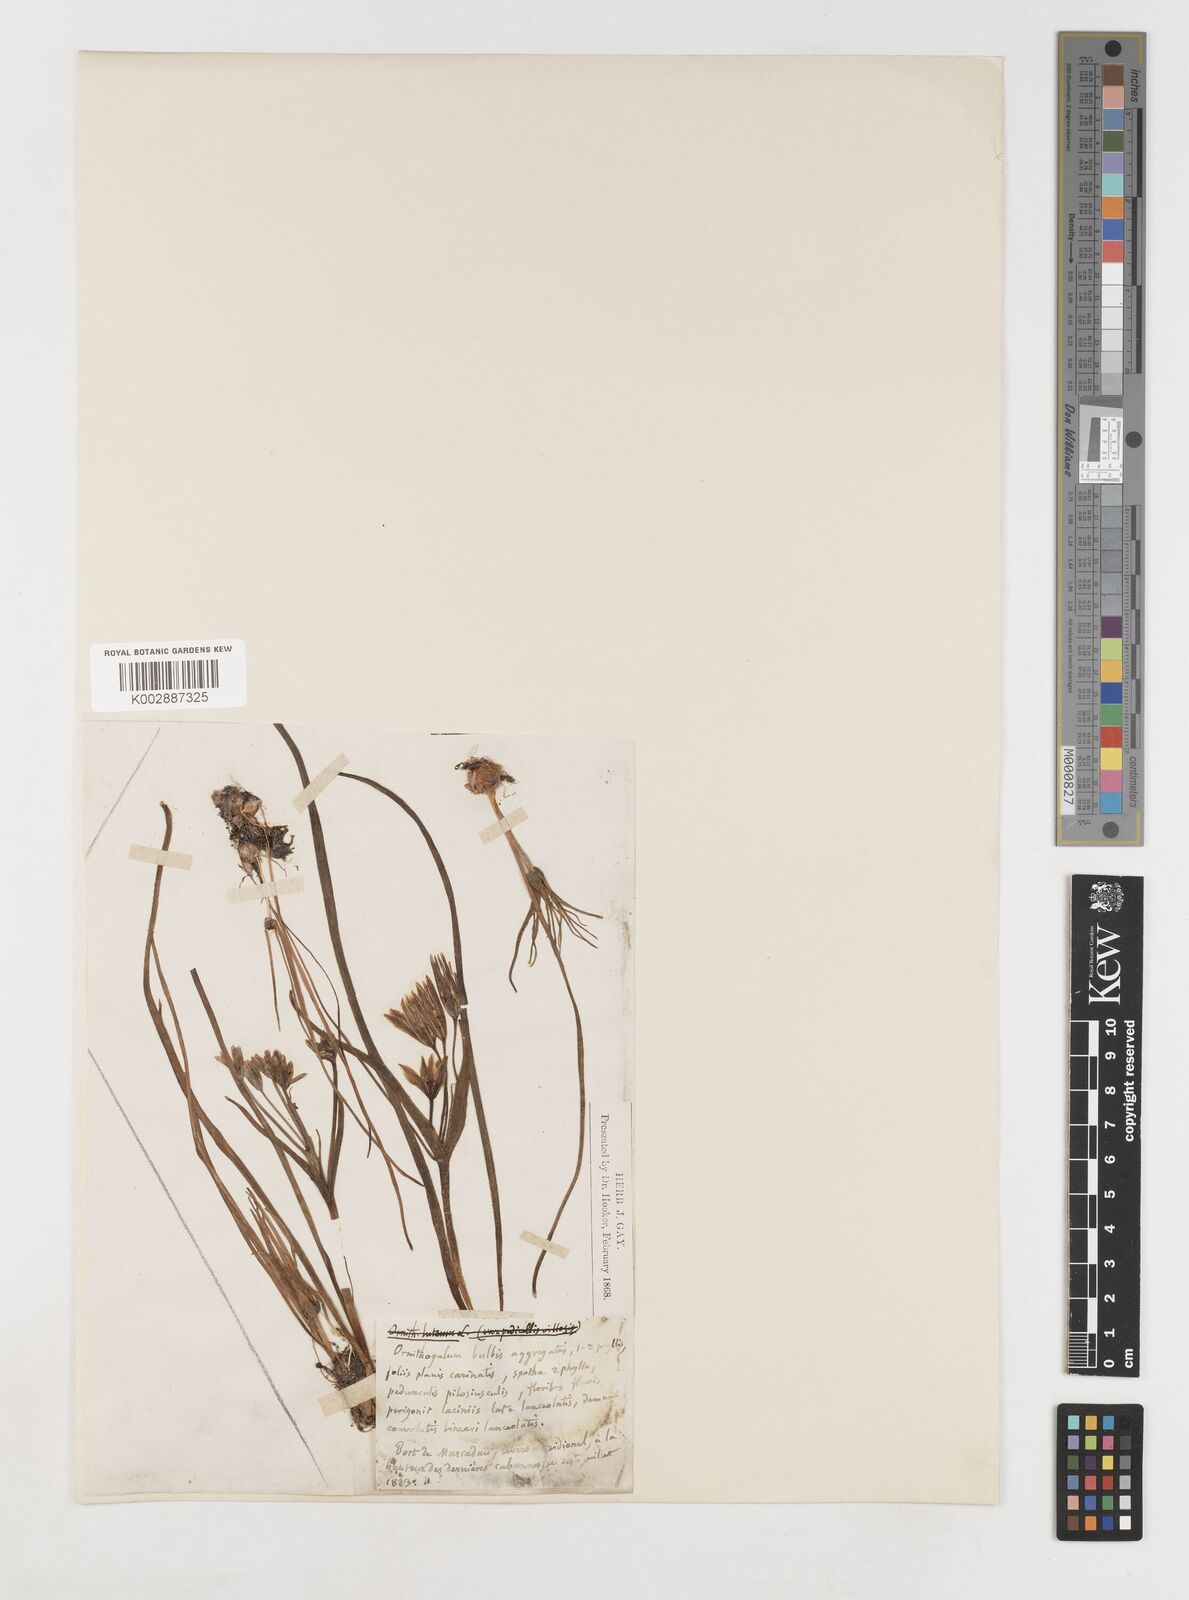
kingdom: Plantae
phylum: Tracheophyta
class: Liliopsida
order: Liliales
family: Liliaceae
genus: Gagea
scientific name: Gagea bohemica
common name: Early star-of-bethlehem
